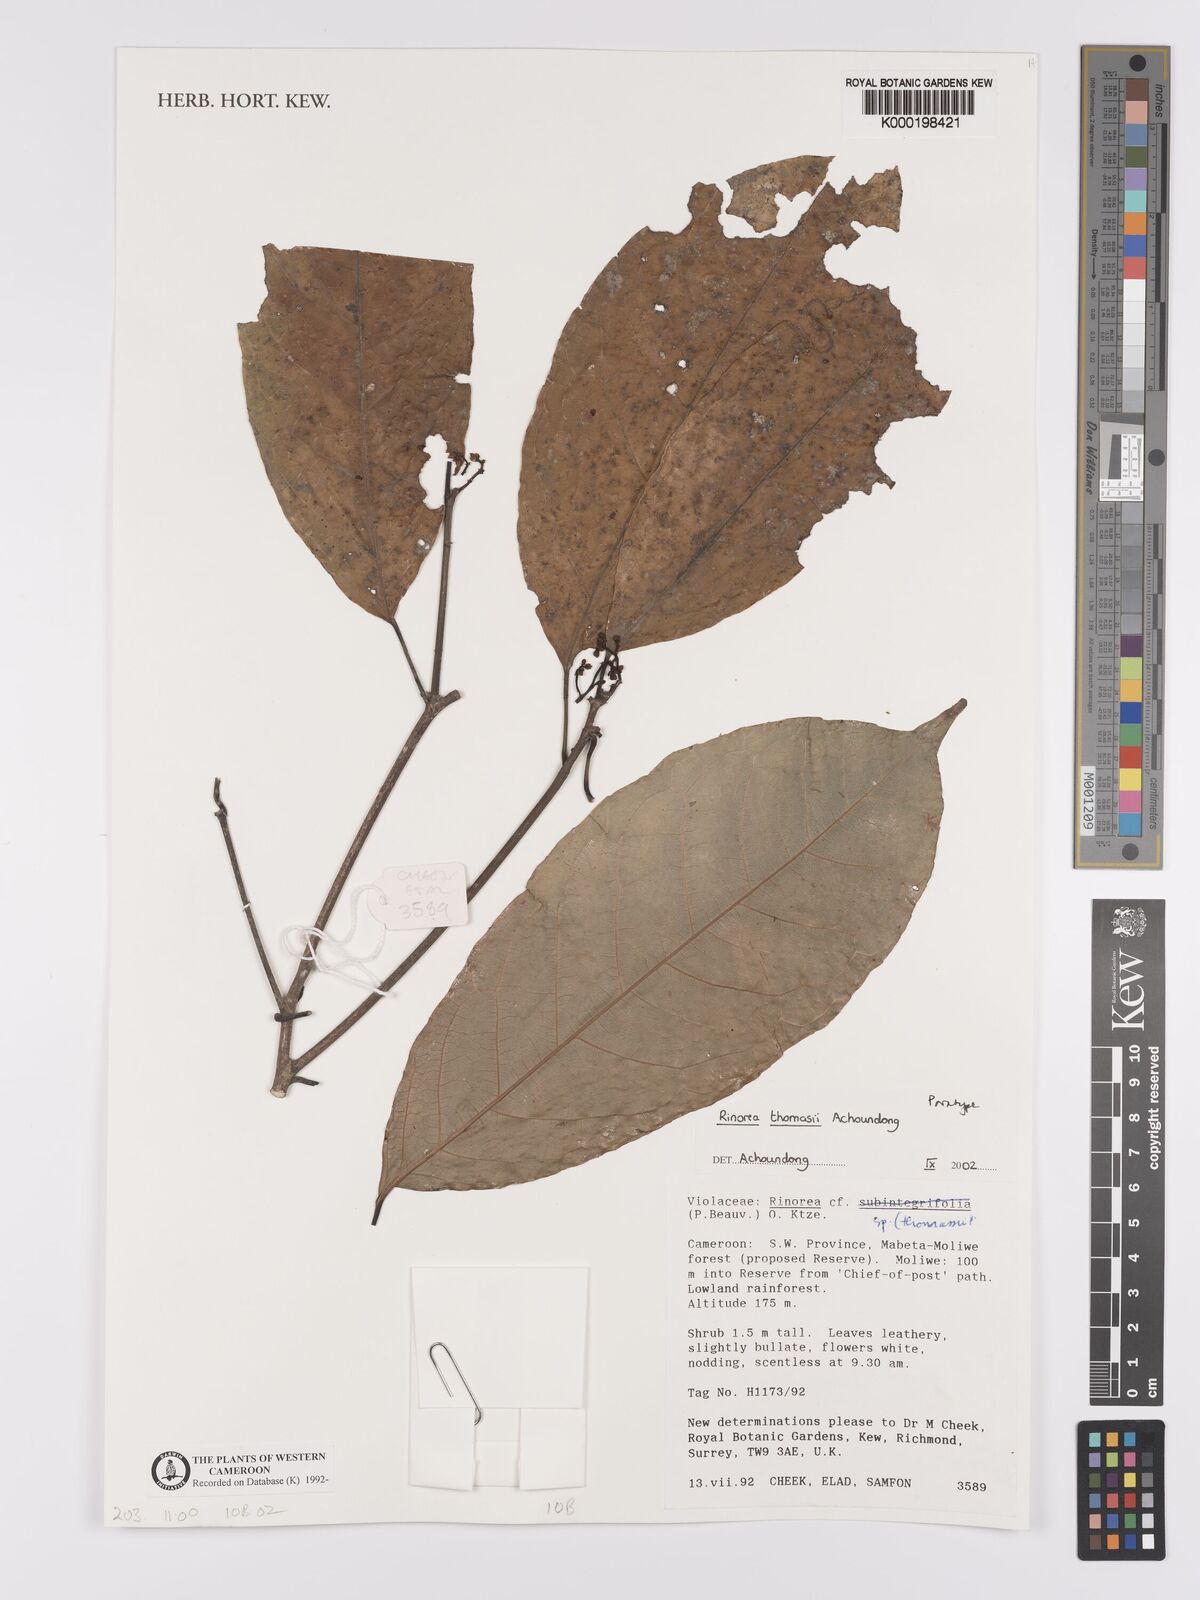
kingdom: Plantae
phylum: Tracheophyta
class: Magnoliopsida
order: Malpighiales
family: Violaceae
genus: Rinorea
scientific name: Rinorea thomasii
